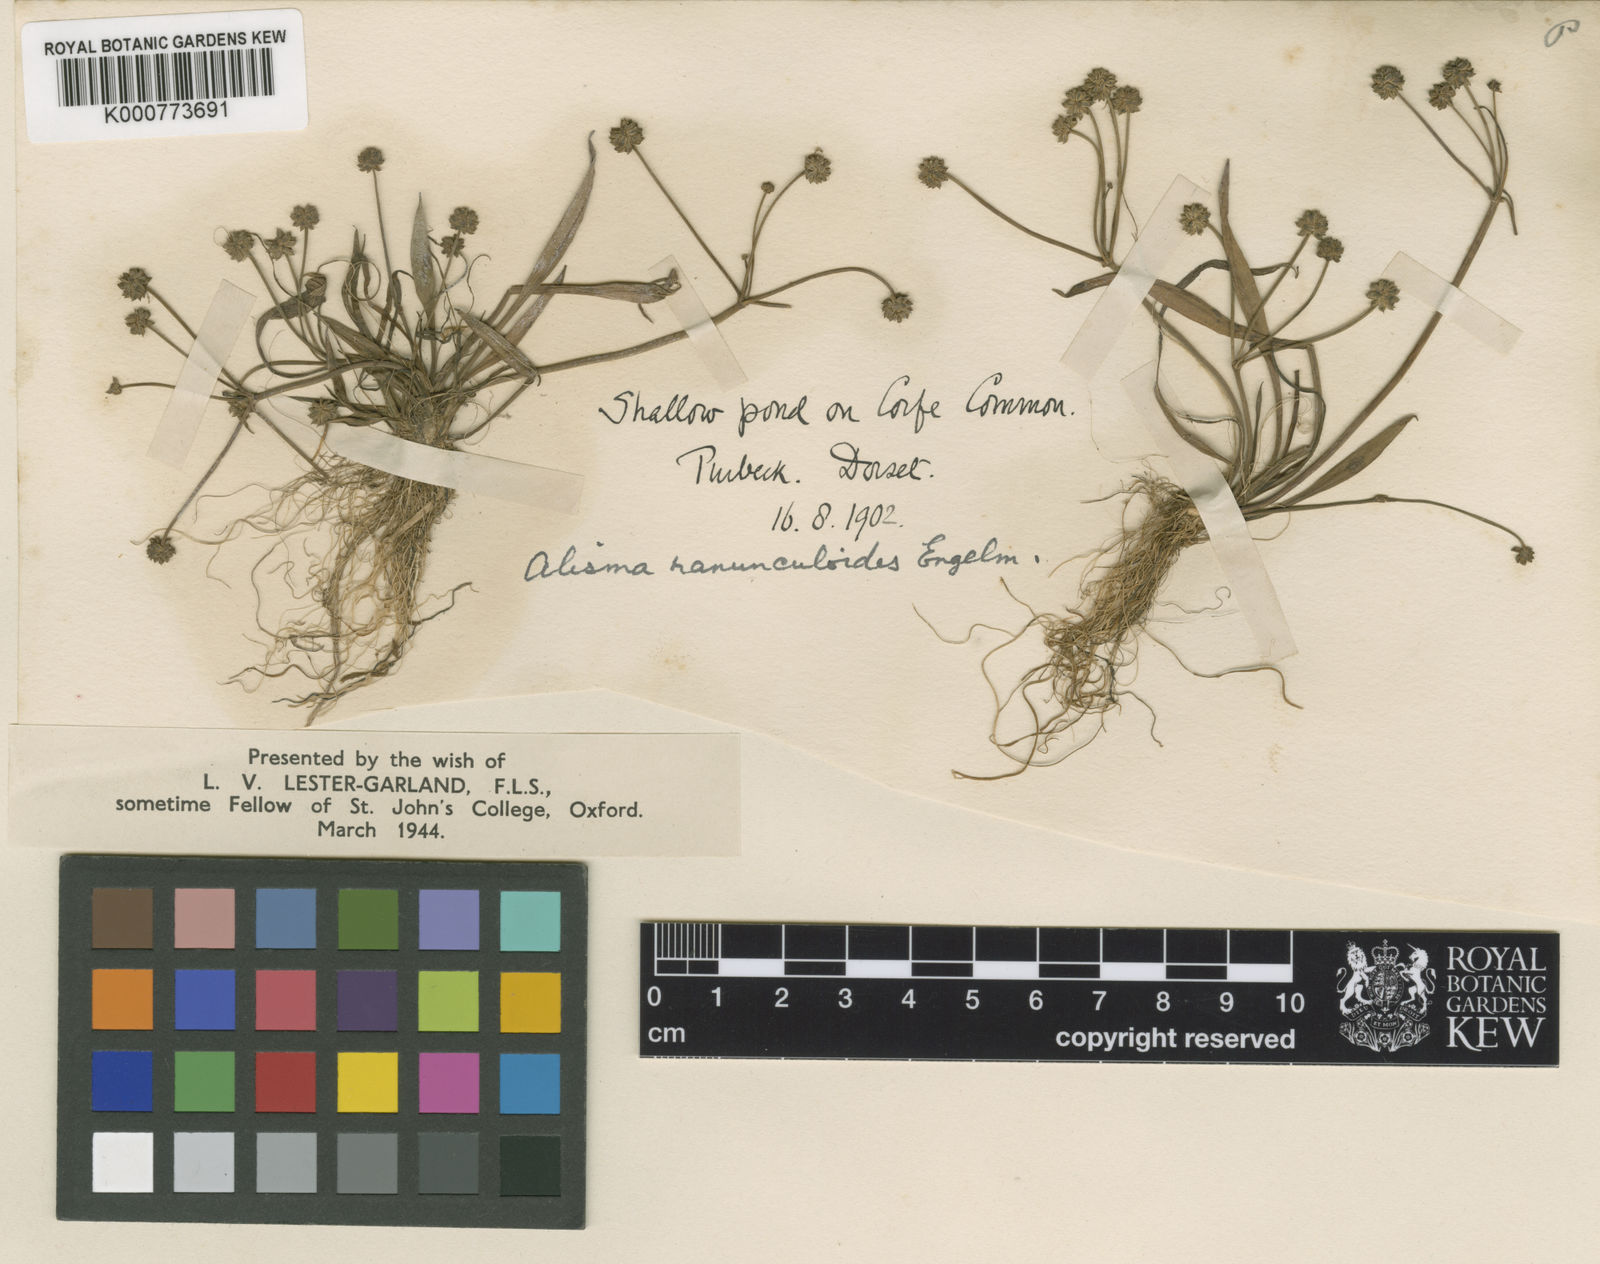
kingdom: Plantae
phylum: Tracheophyta
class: Liliopsida
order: Alismatales
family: Alismataceae
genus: Baldellia
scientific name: Baldellia ranunculoides
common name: Lesser water-plantain
